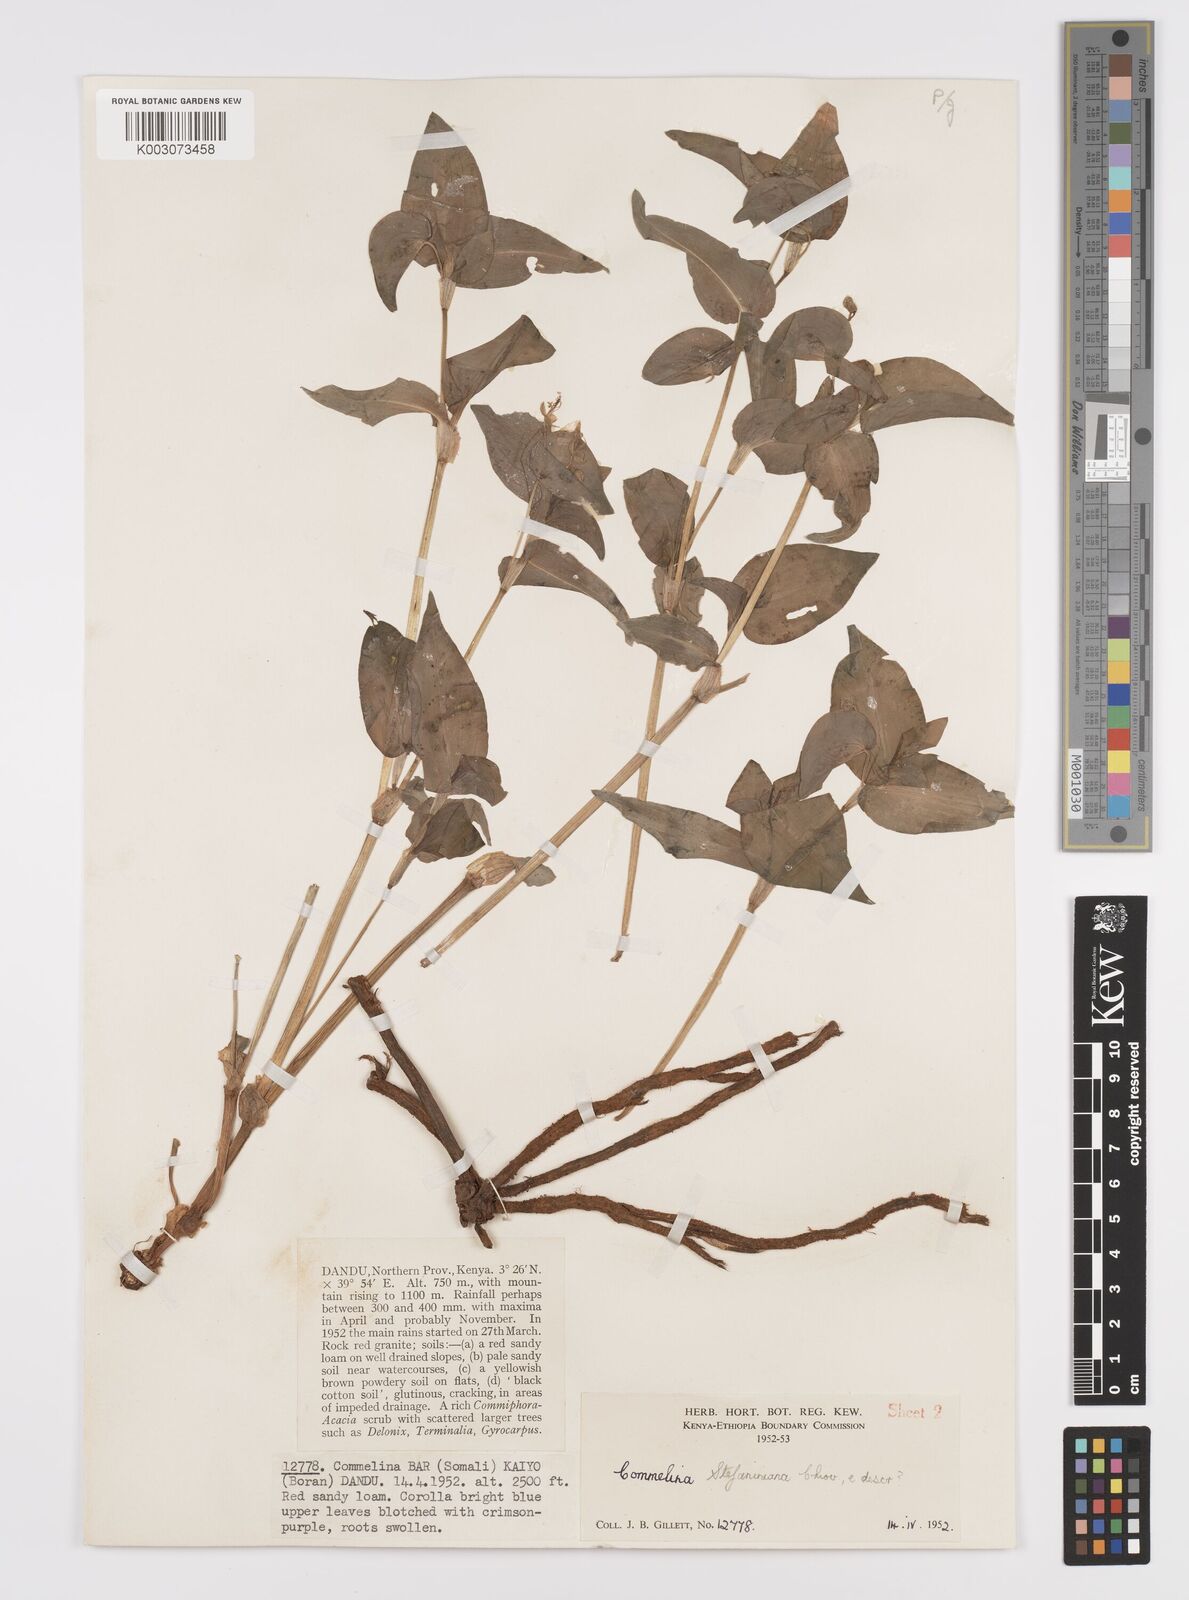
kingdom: Plantae
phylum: Tracheophyta
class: Liliopsida
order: Commelinales
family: Commelinaceae
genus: Commelina
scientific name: Commelina stefaniniana
